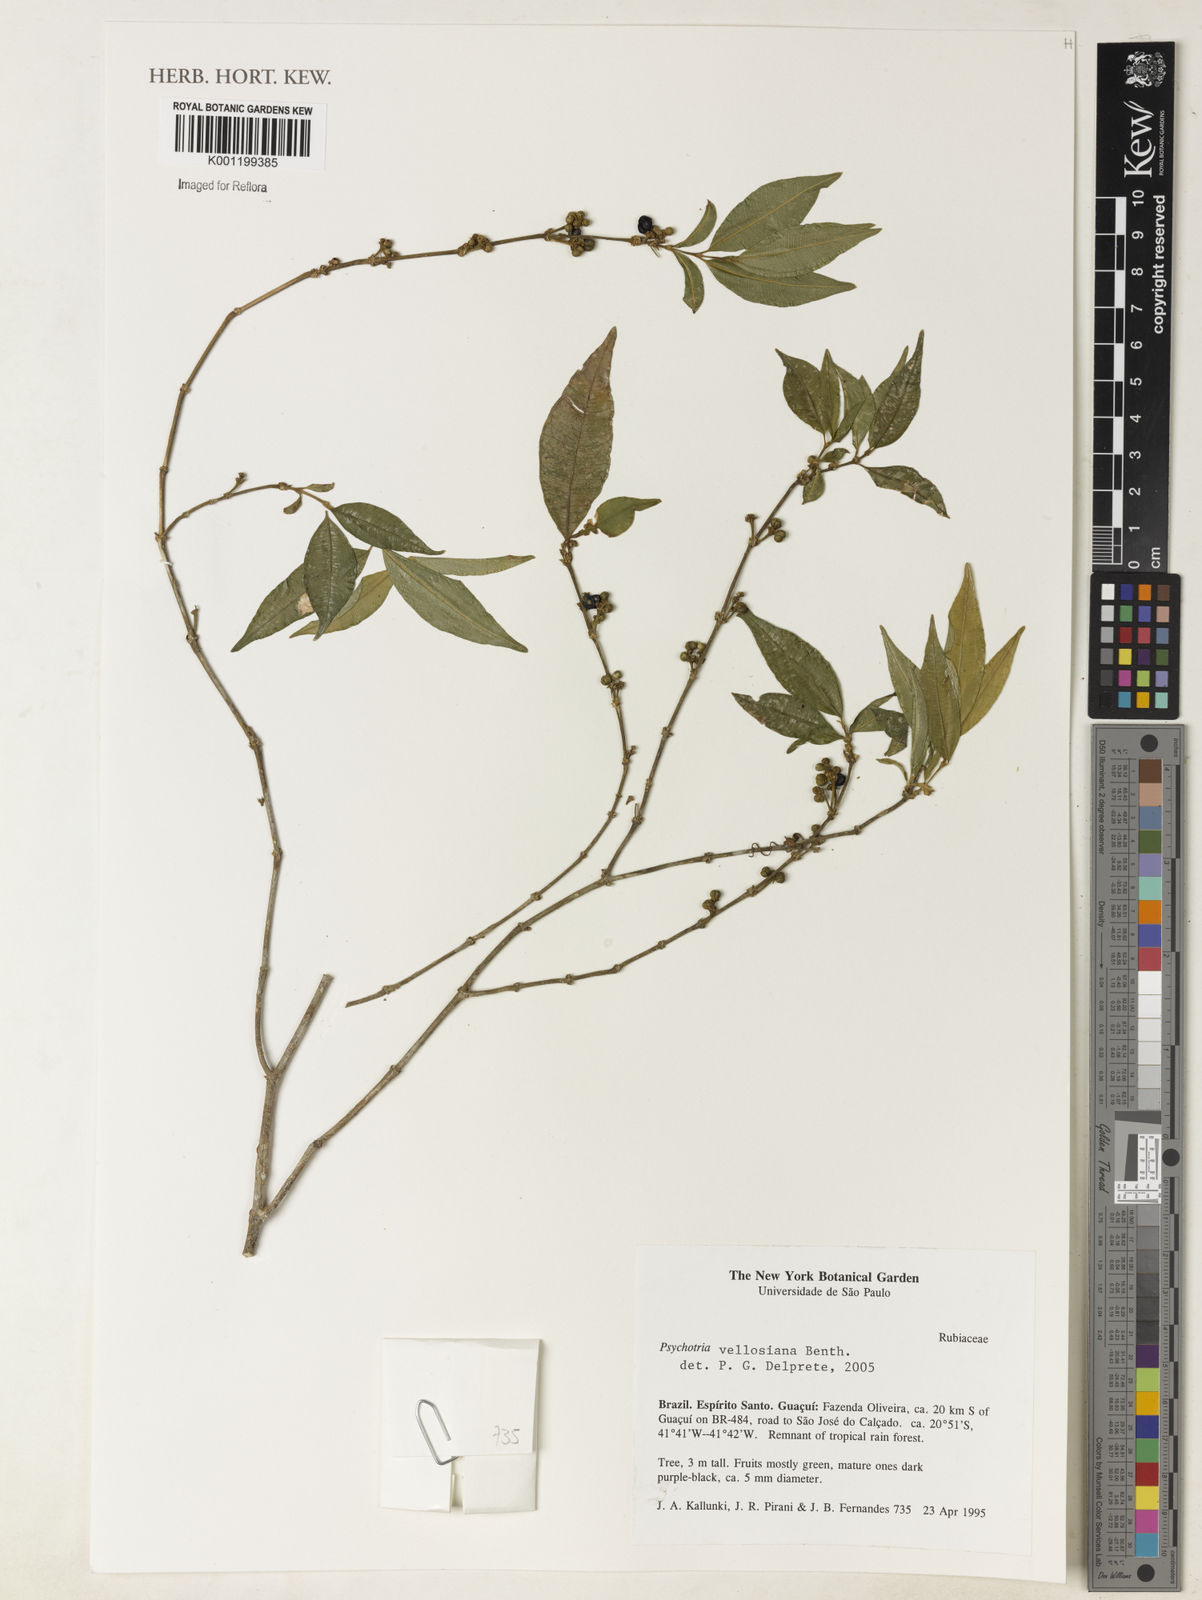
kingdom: Plantae
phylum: Tracheophyta
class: Magnoliopsida
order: Gentianales
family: Rubiaceae
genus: Palicourea
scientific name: Palicourea sessilis
